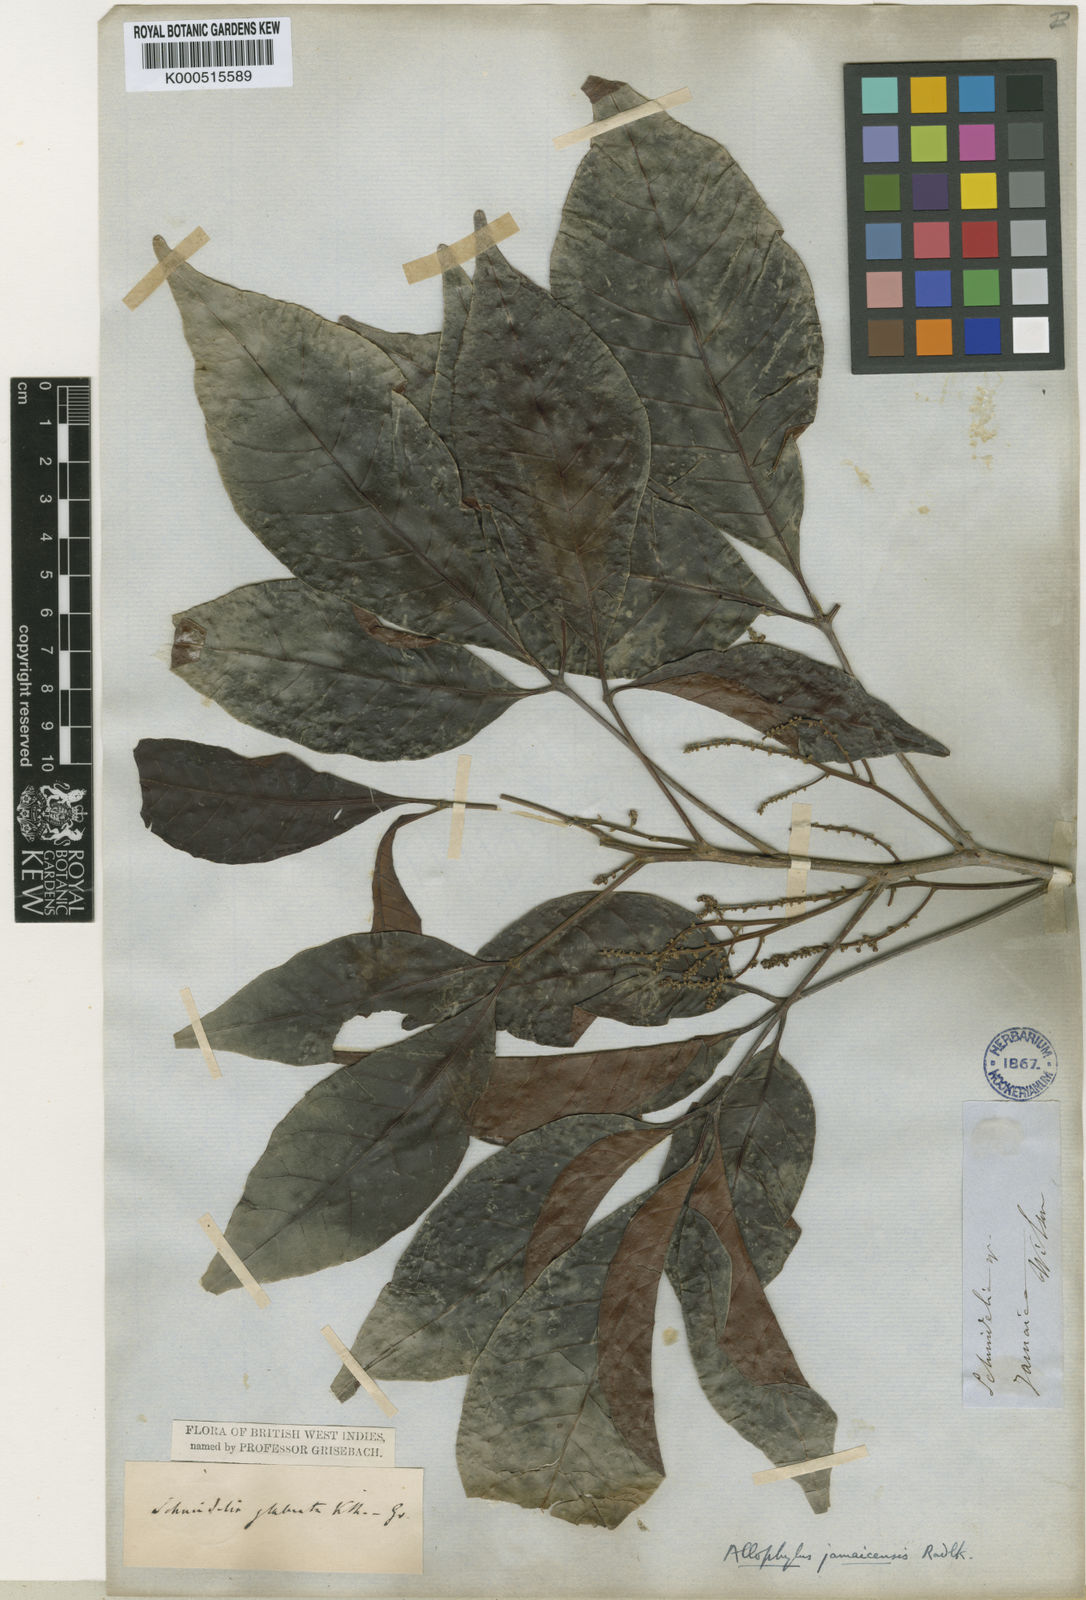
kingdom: Plantae
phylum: Tracheophyta
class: Magnoliopsida
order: Sapindales
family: Sapindaceae
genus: Allophylus
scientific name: Allophylus jamaicensis
